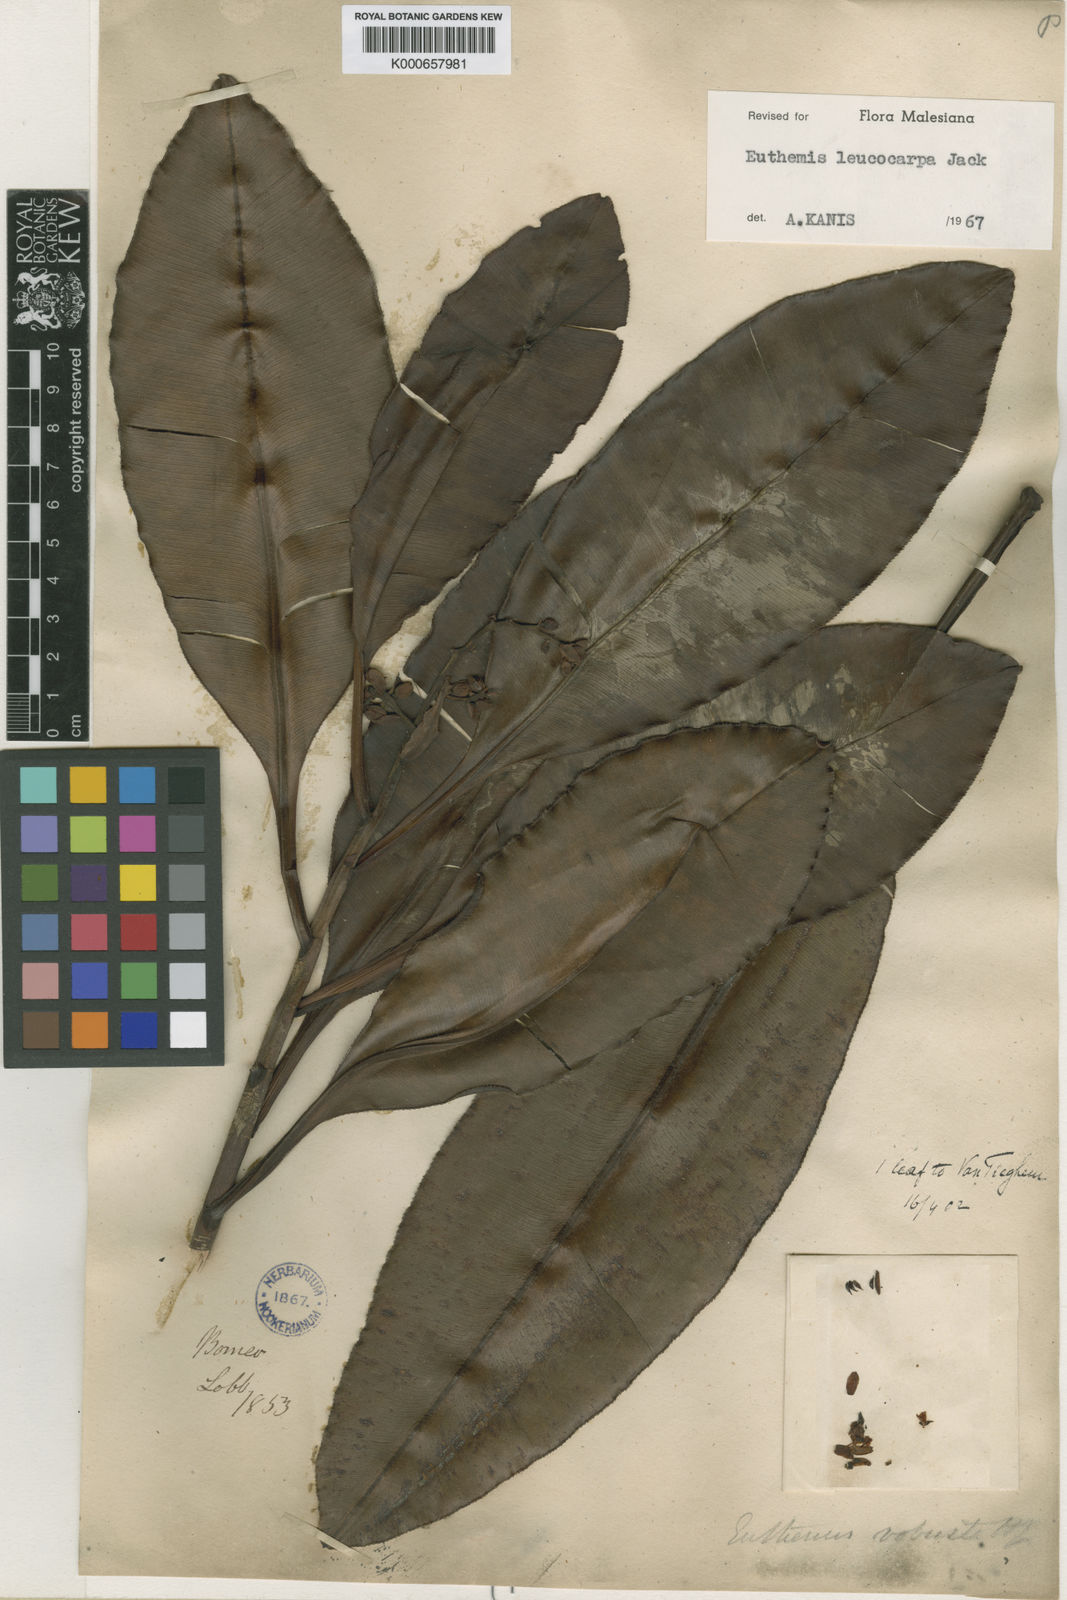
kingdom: Plantae
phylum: Tracheophyta
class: Magnoliopsida
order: Malpighiales
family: Ochnaceae
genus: Euthemis
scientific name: Euthemis leucocarpa
